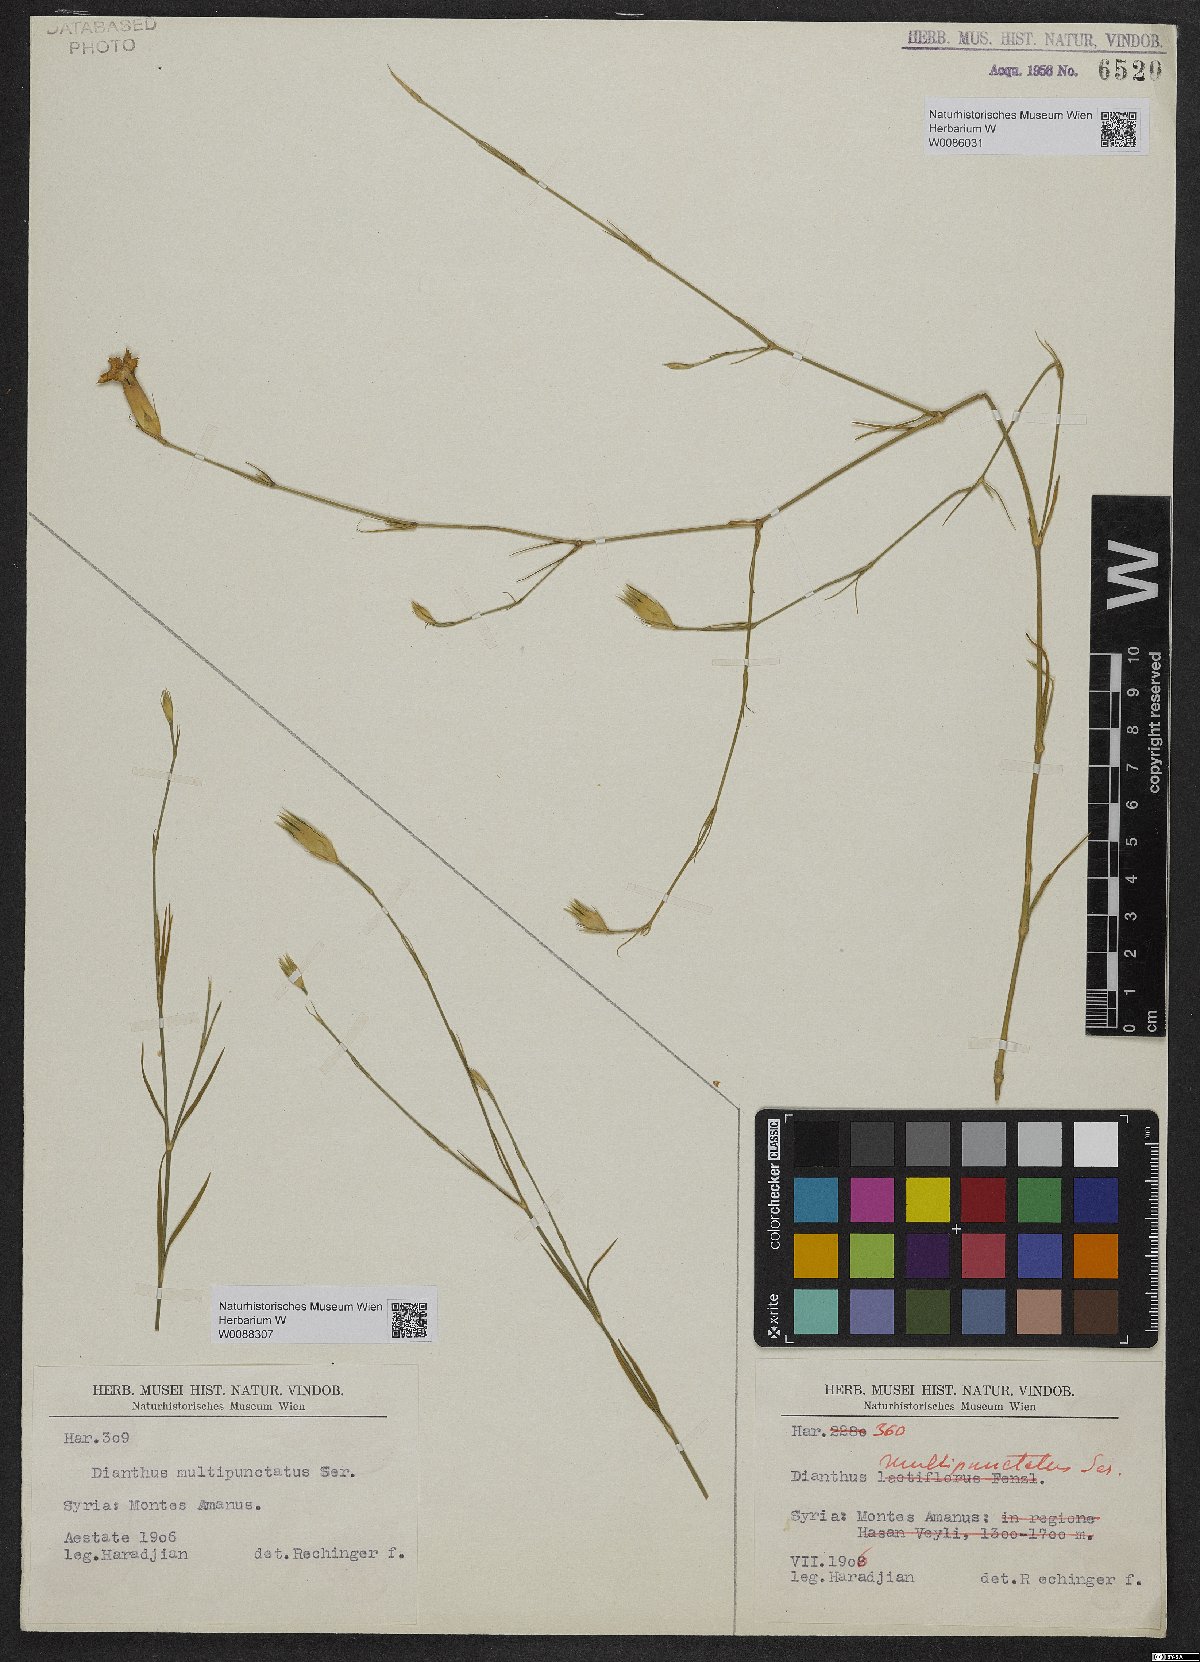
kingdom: Plantae
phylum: Tracheophyta
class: Magnoliopsida
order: Caryophyllales
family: Caryophyllaceae
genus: Dianthus
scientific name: Dianthus strictus
